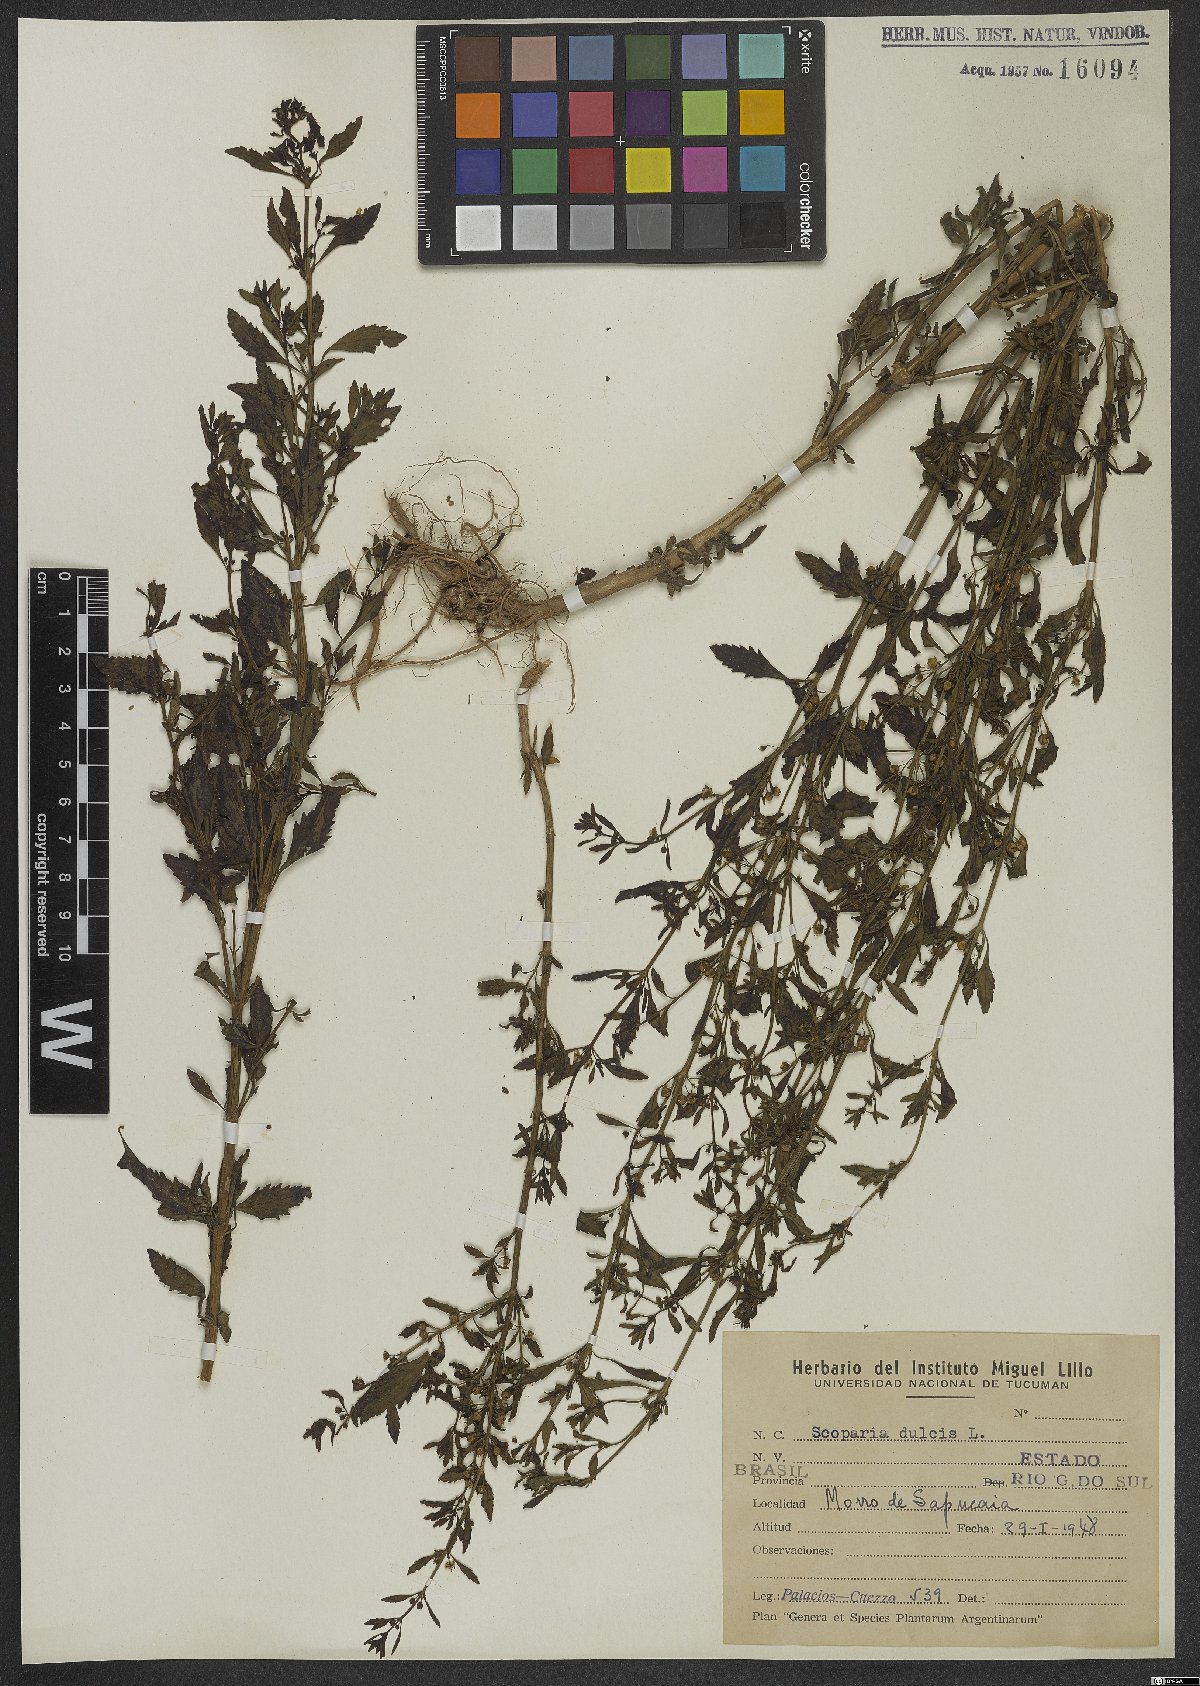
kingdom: Plantae
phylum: Tracheophyta
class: Magnoliopsida
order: Lamiales
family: Plantaginaceae
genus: Scoparia
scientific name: Scoparia dulcis
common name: Scoparia-weed
